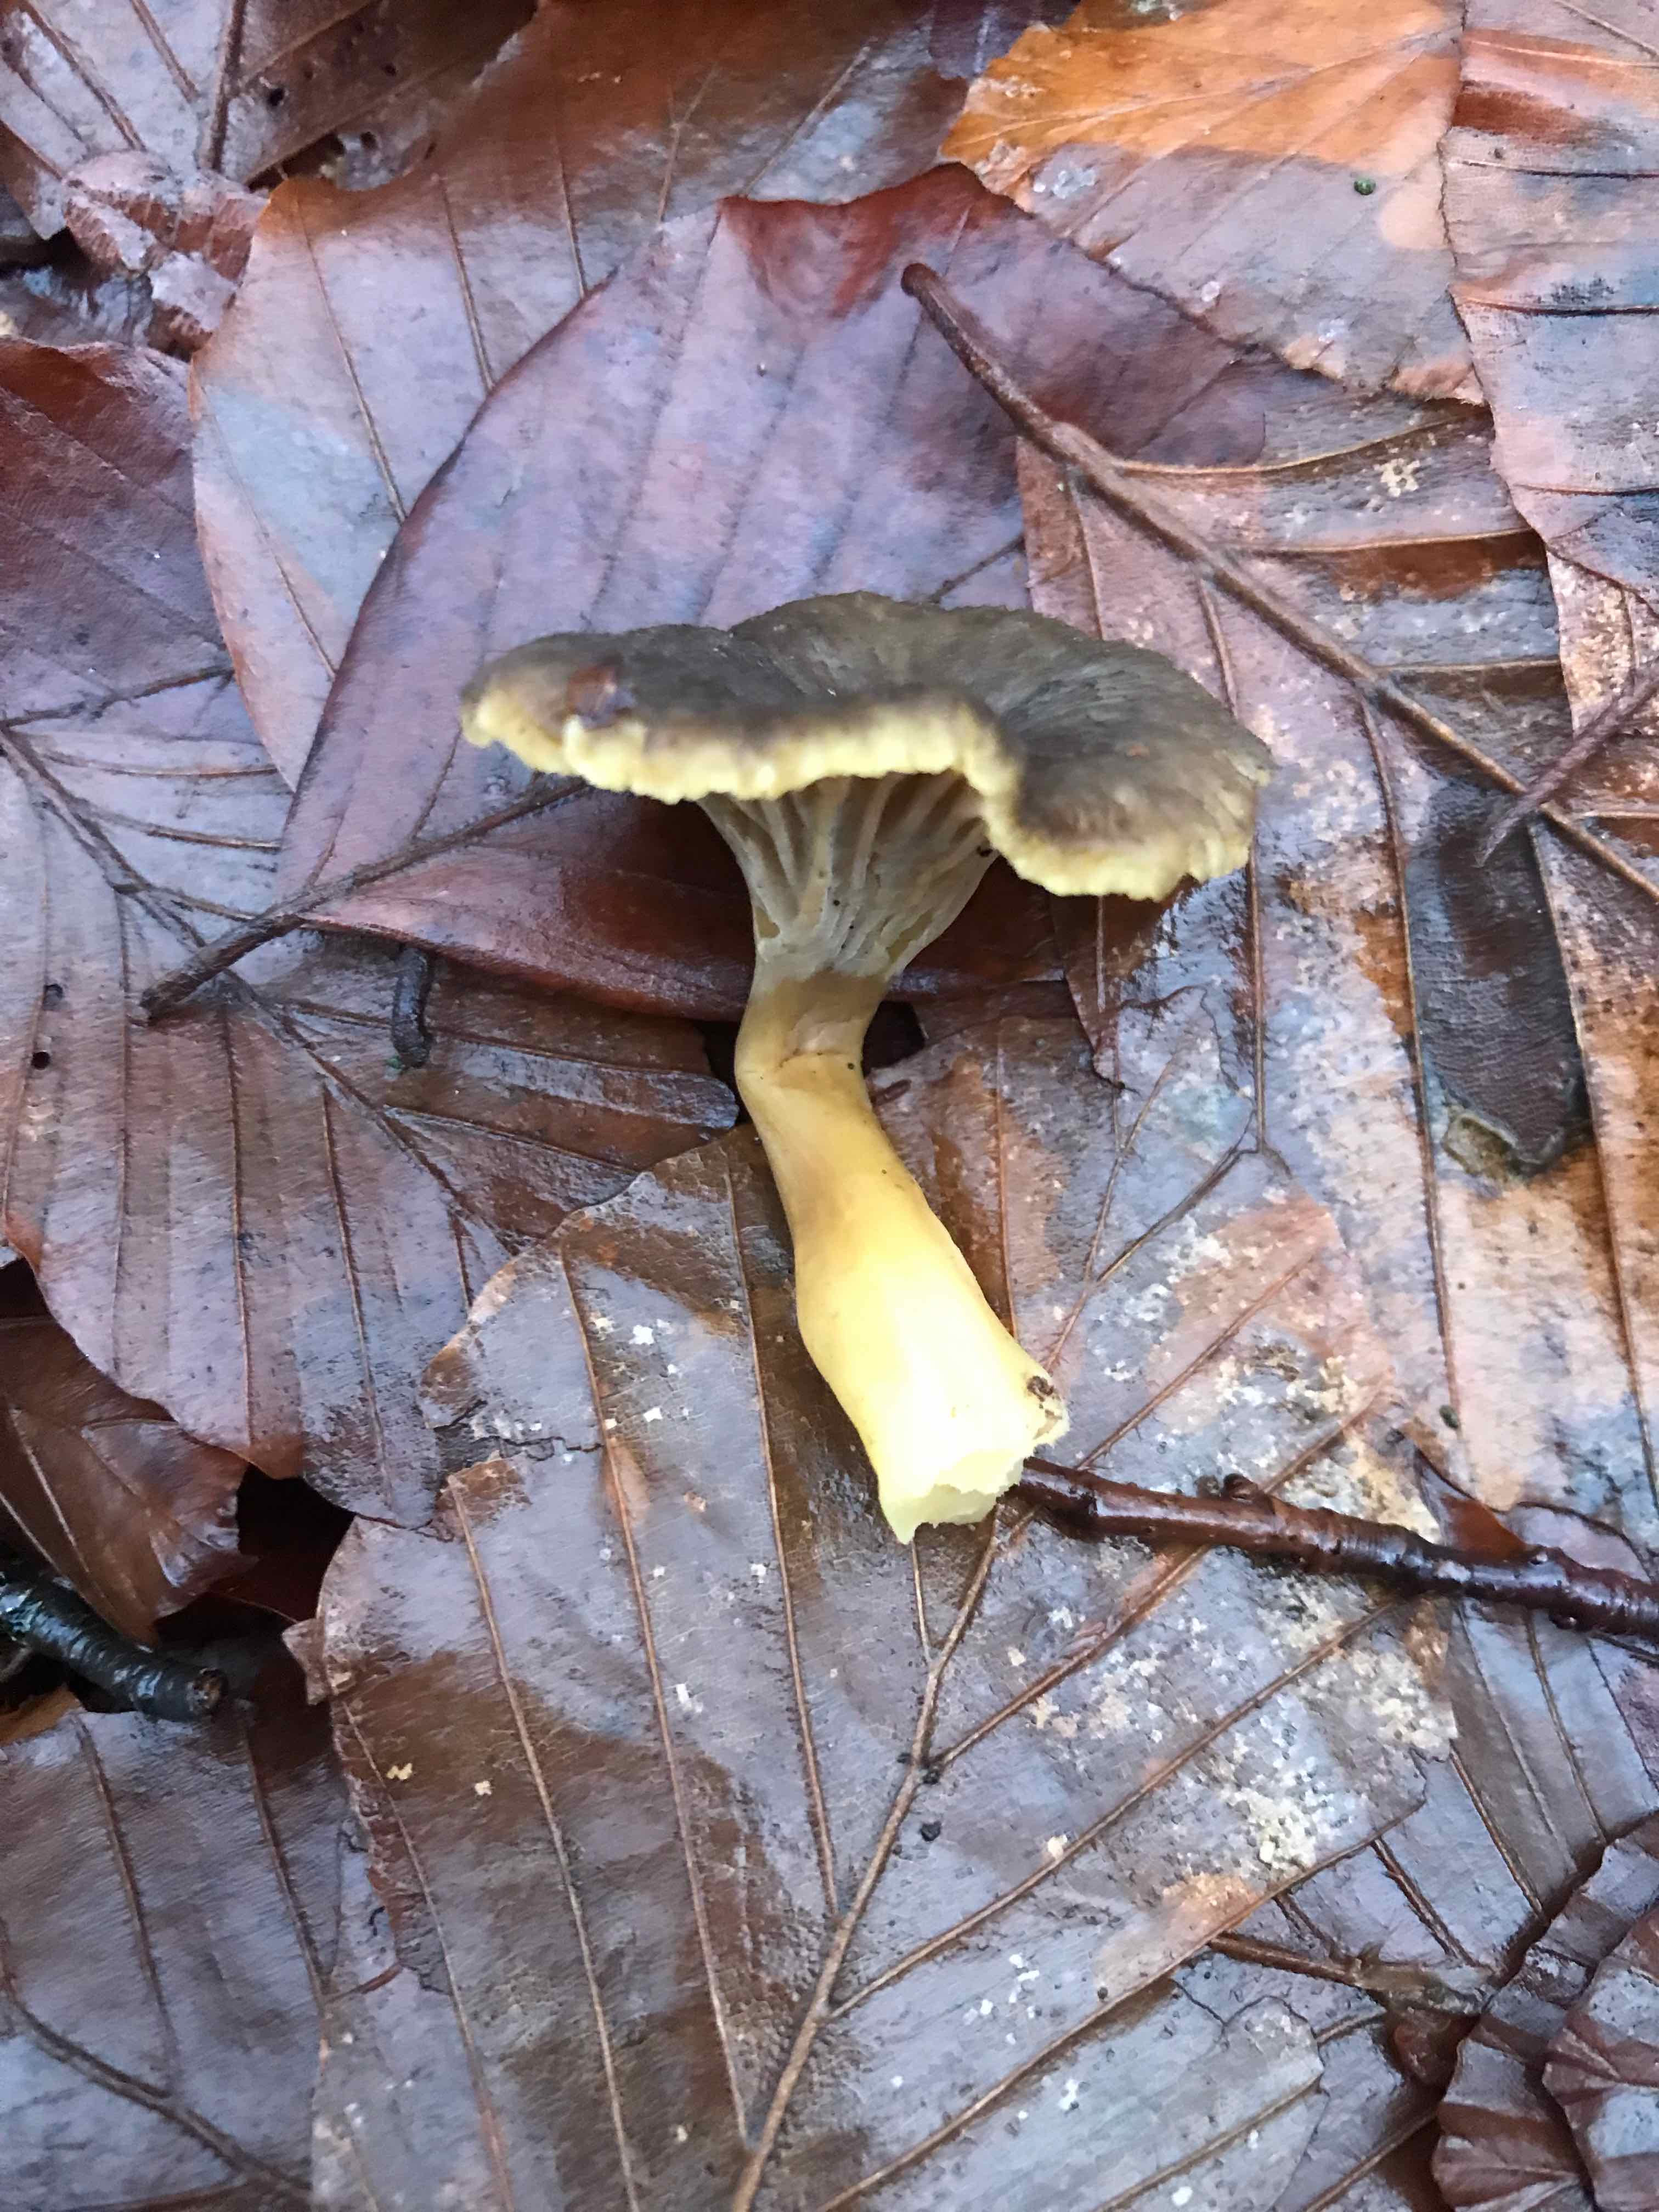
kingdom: Fungi
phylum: Basidiomycota
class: Agaricomycetes
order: Cantharellales
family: Hydnaceae
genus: Craterellus
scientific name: Craterellus tubaeformis
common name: tragt-kantarel
